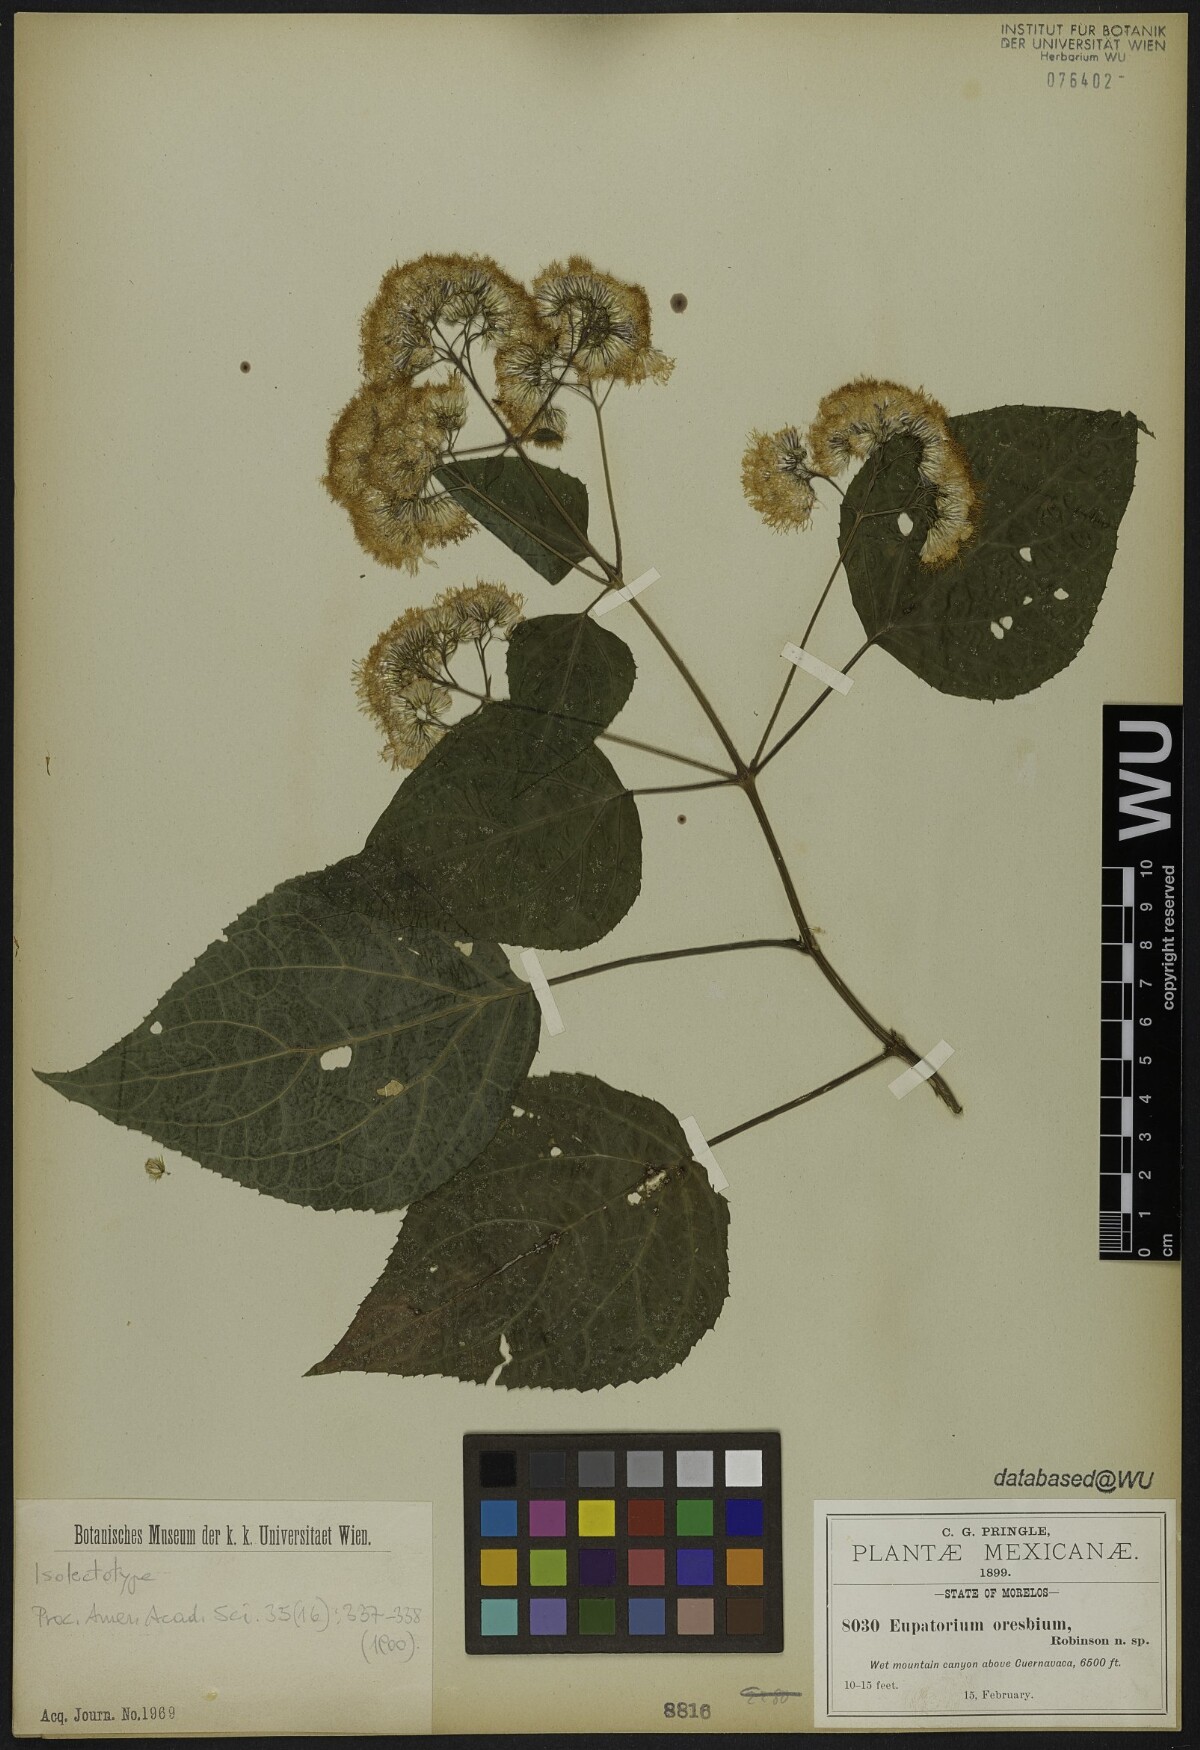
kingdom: Plantae
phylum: Tracheophyta
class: Magnoliopsida
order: Asterales
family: Asteraceae
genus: Bartlettina
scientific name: Bartlettina oresbia
